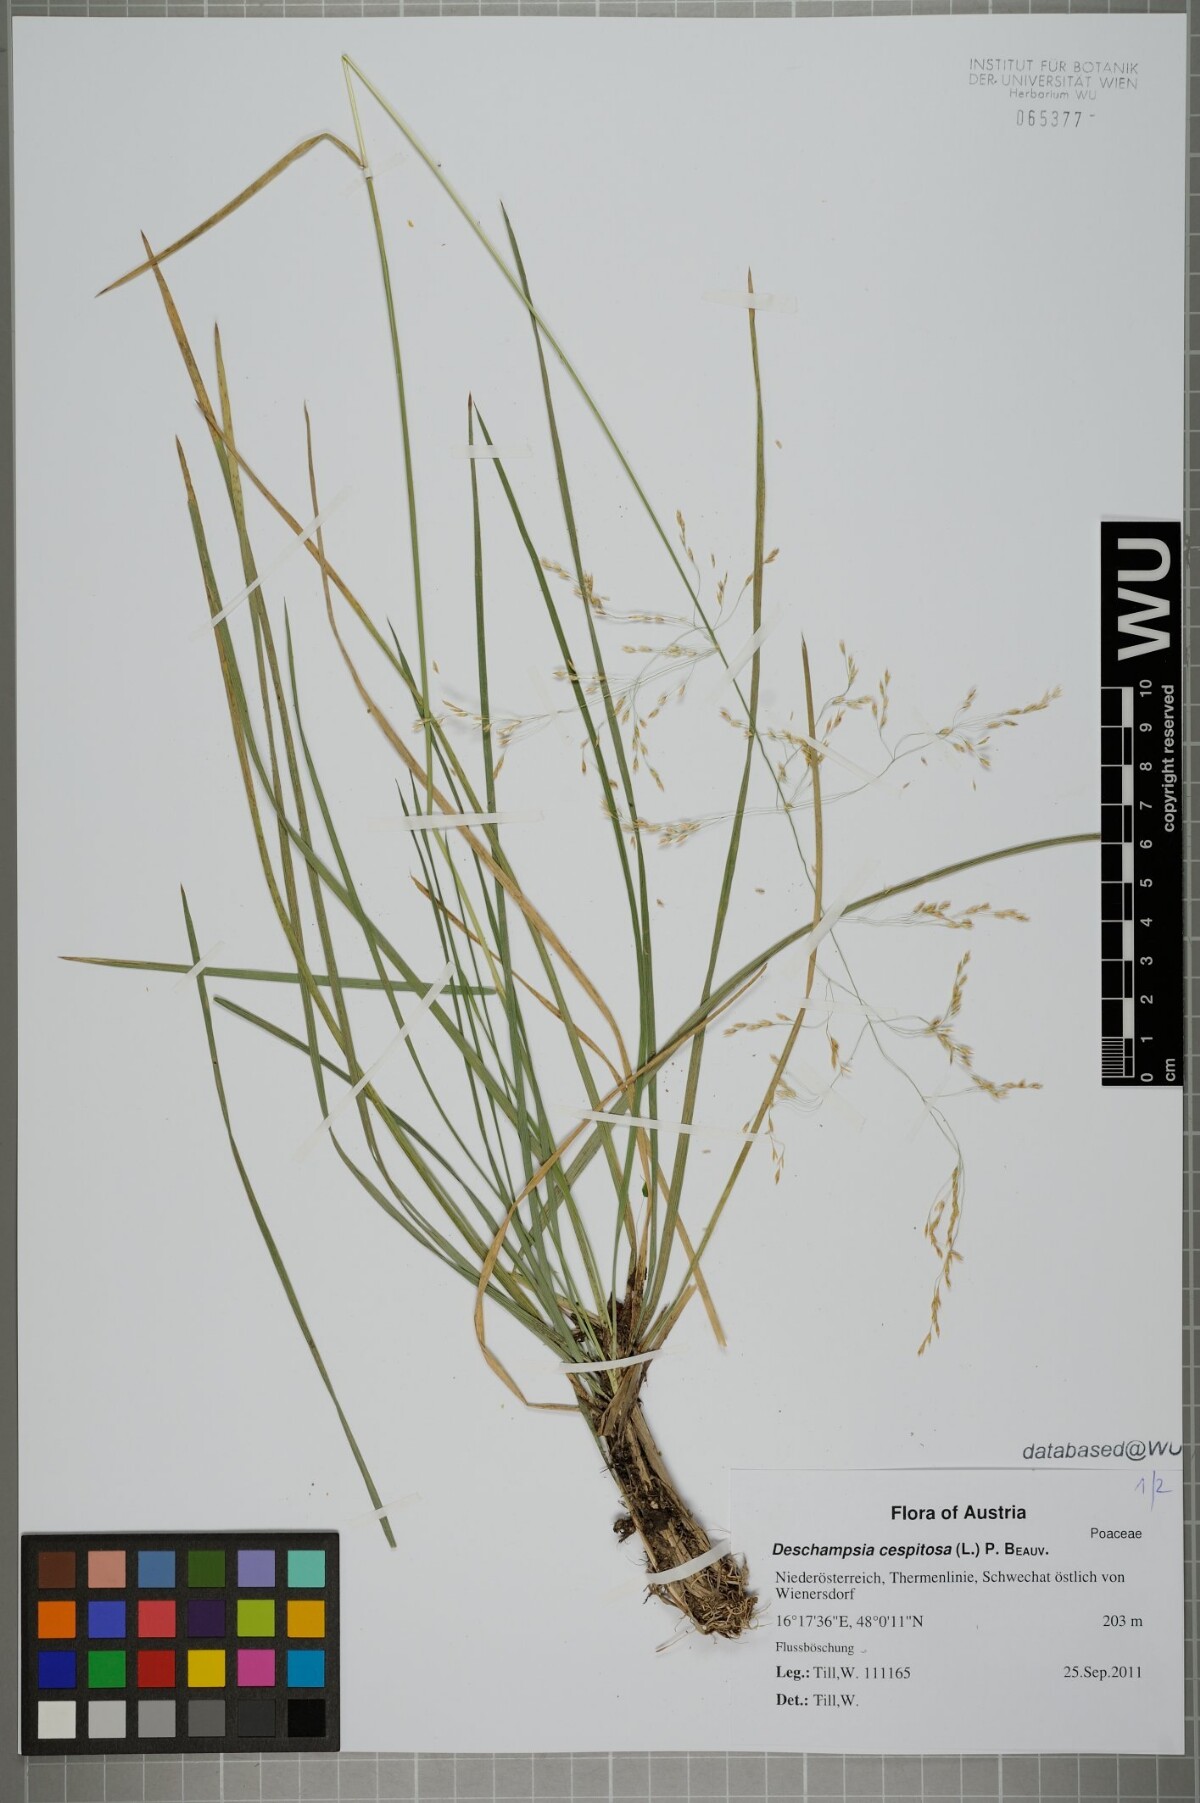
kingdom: Plantae
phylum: Tracheophyta
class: Liliopsida
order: Poales
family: Poaceae
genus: Deschampsia
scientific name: Deschampsia cespitosa
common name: Tufted hair-grass
